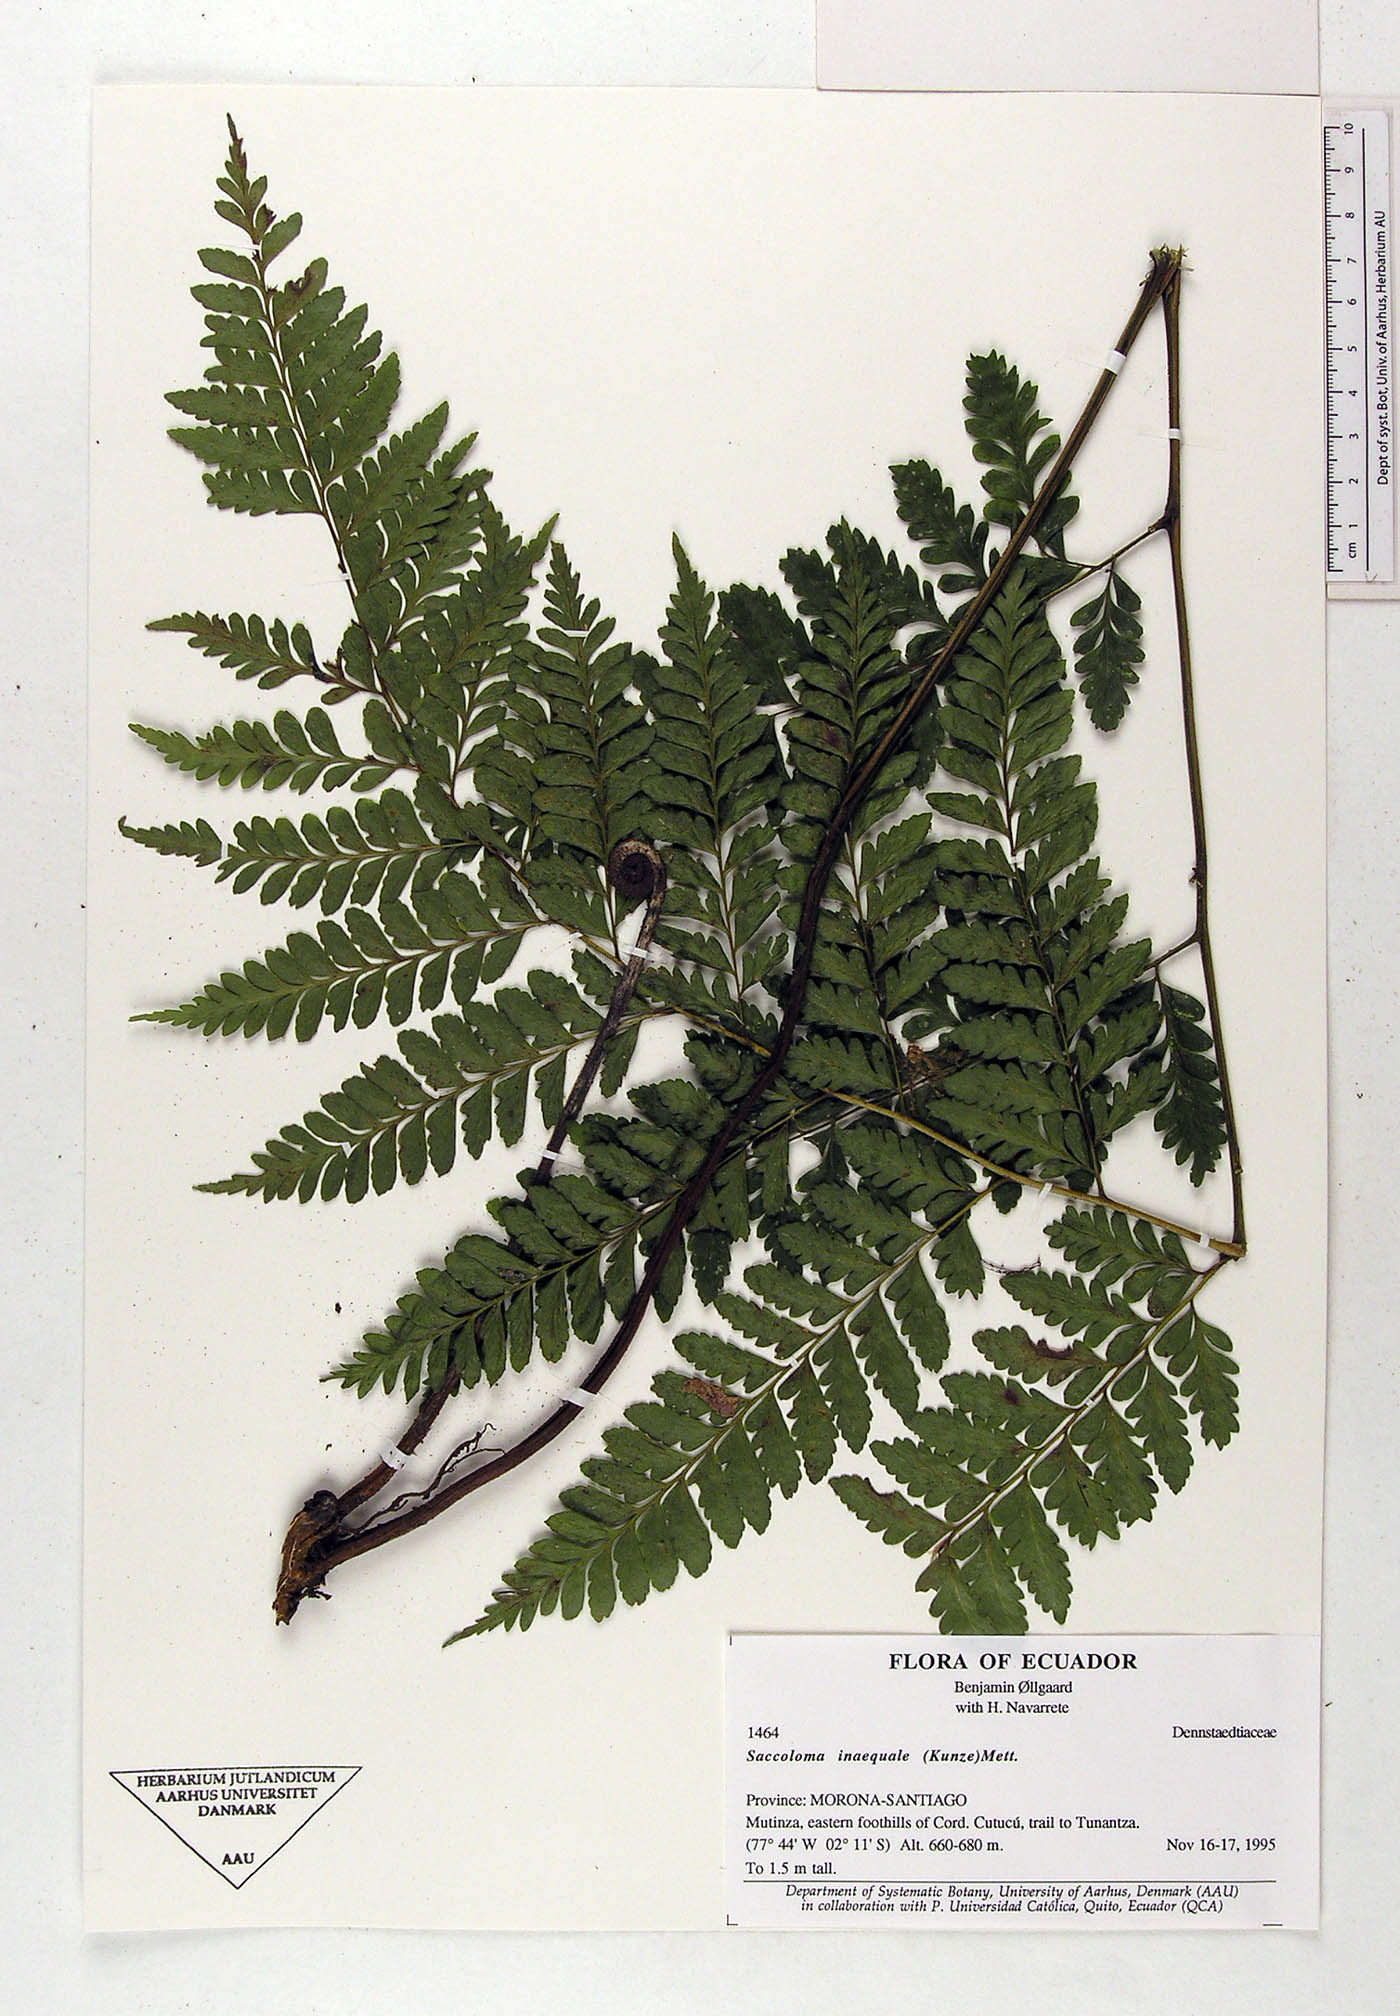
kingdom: Plantae
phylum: Tracheophyta
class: Polypodiopsida
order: Polypodiales
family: Saccolomataceae
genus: Saccoloma
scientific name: Saccoloma inaequale
